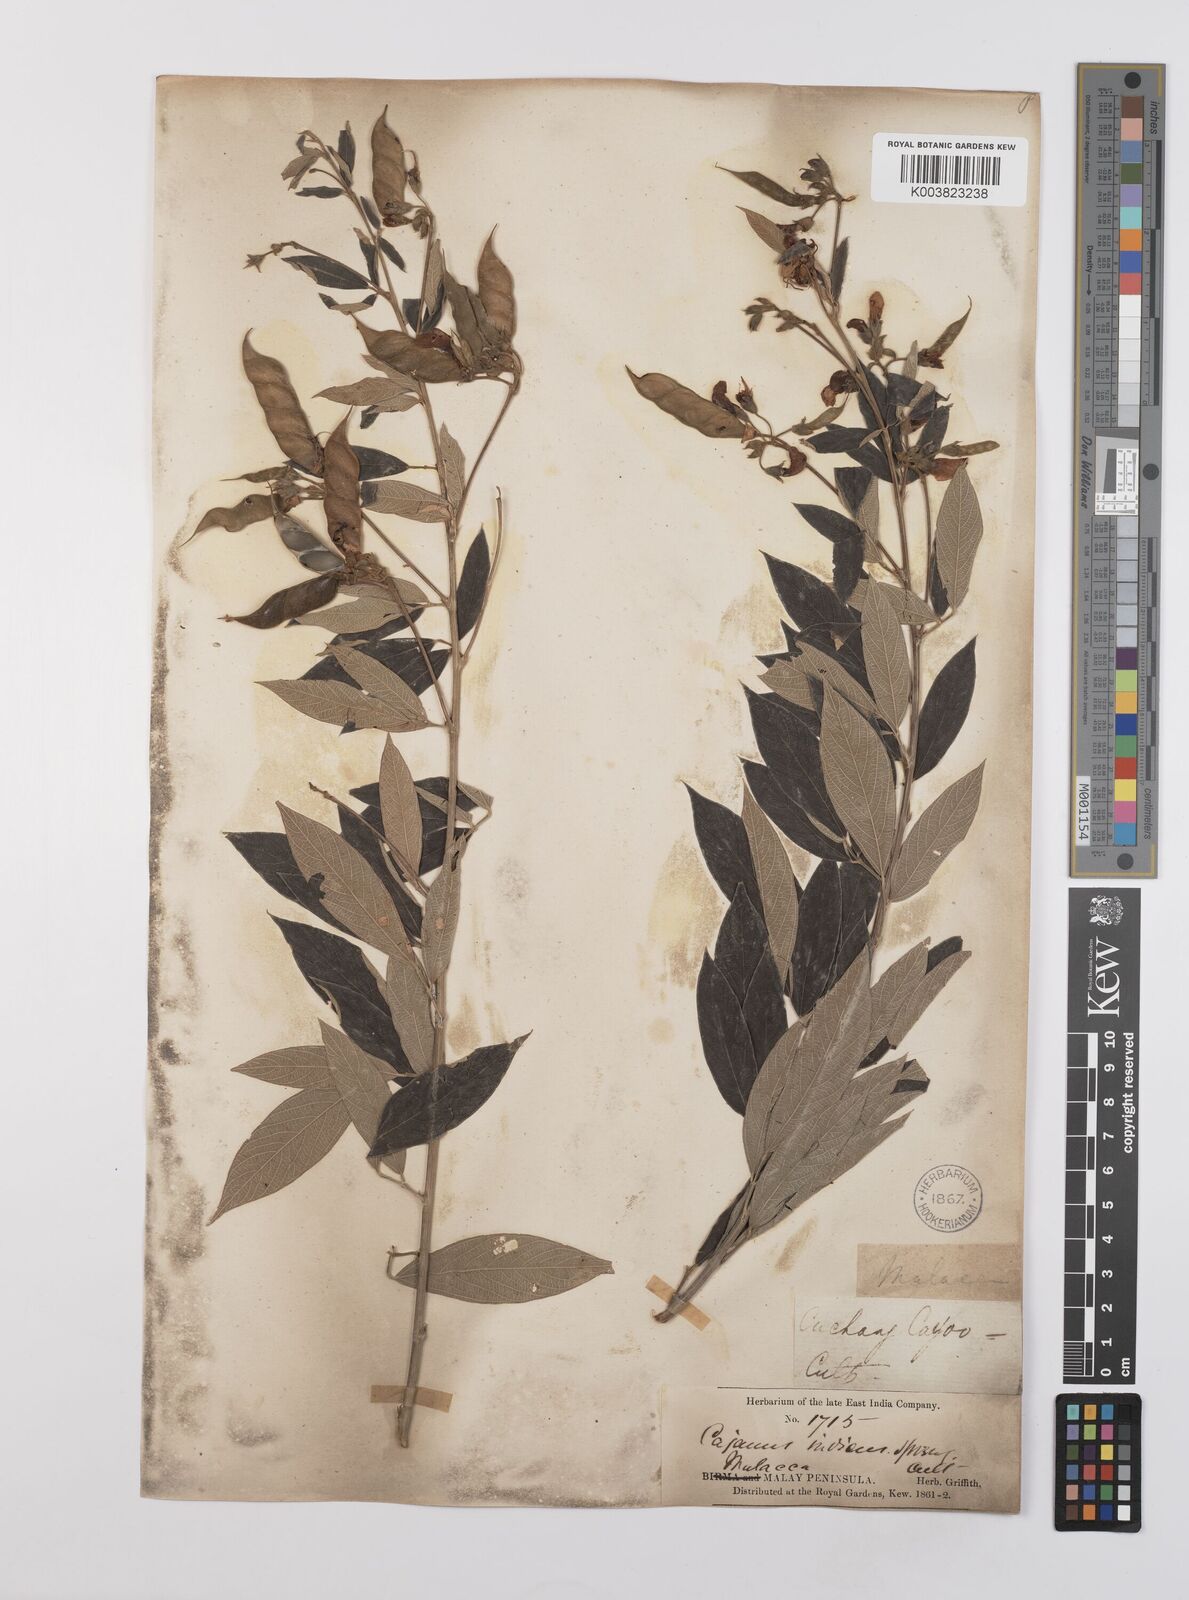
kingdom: Plantae
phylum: Tracheophyta
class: Magnoliopsida
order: Fabales
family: Fabaceae
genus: Cajanus
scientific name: Cajanus cajan
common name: Pigeonpea
